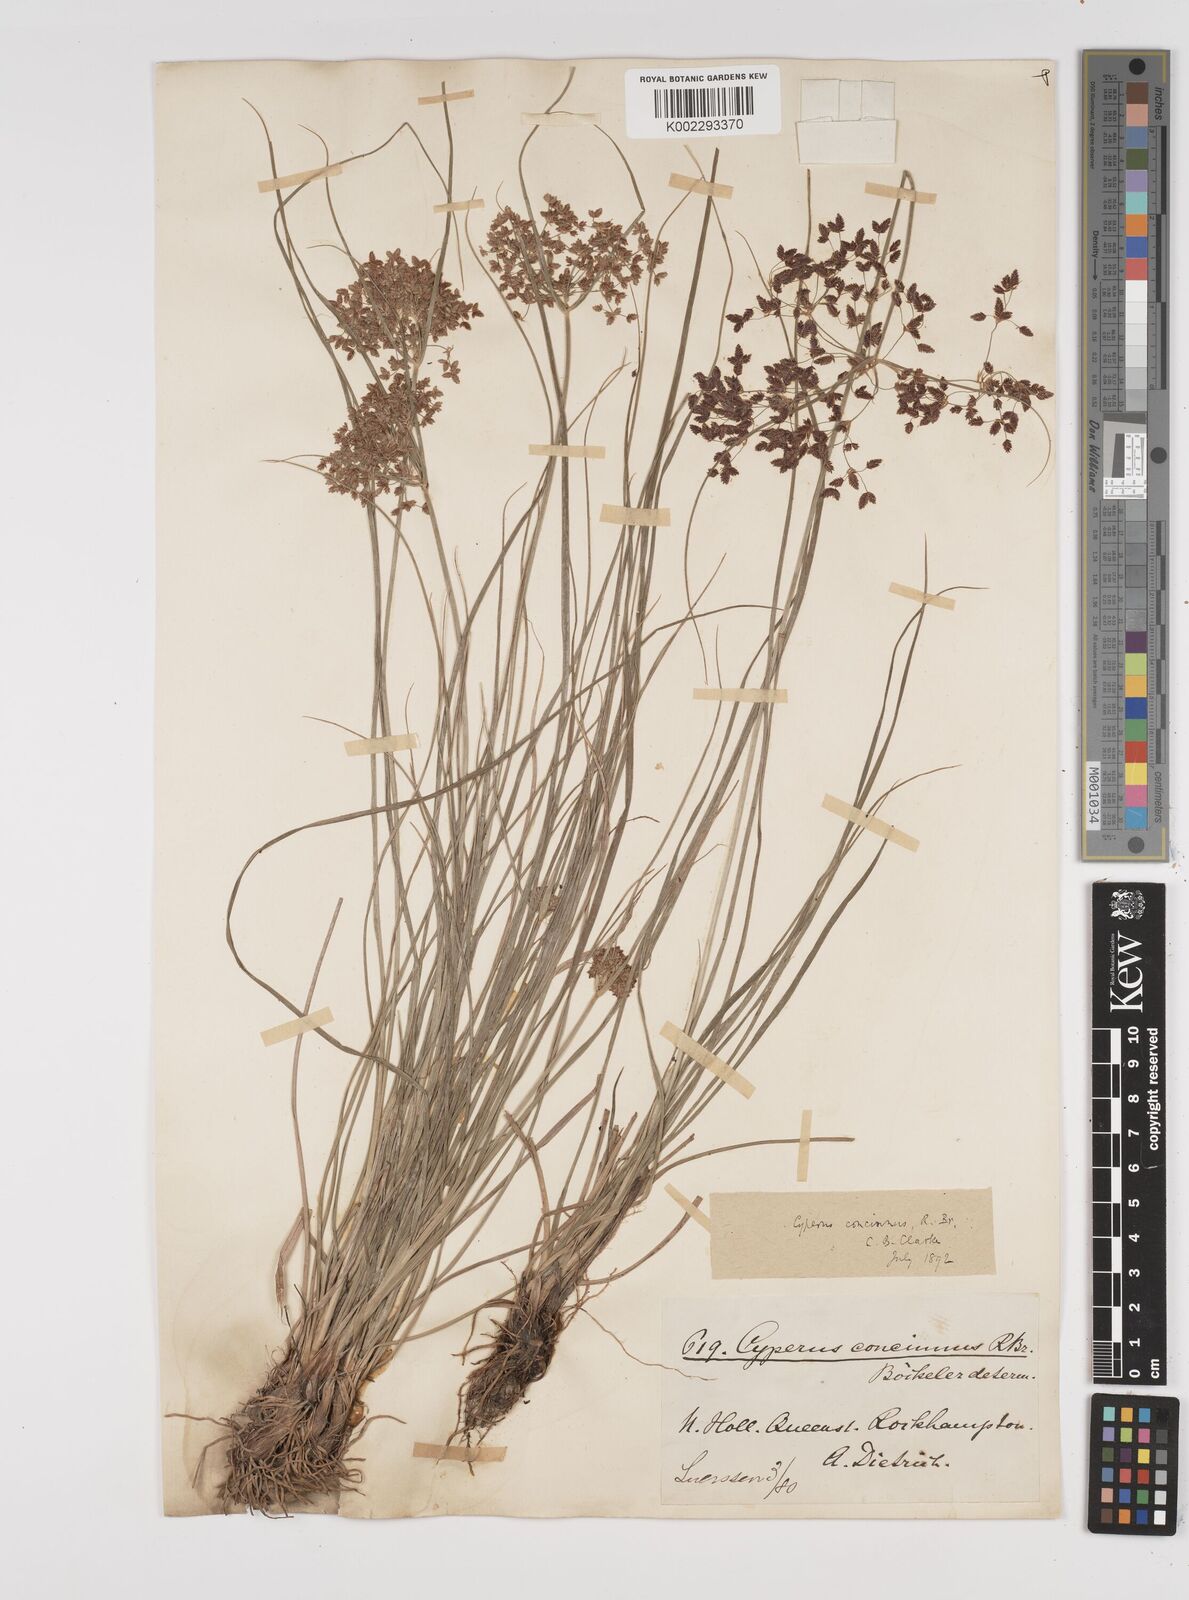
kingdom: Plantae
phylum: Tracheophyta
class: Liliopsida
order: Poales
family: Cyperaceae
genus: Cyperus
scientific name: Cyperus concinnus
